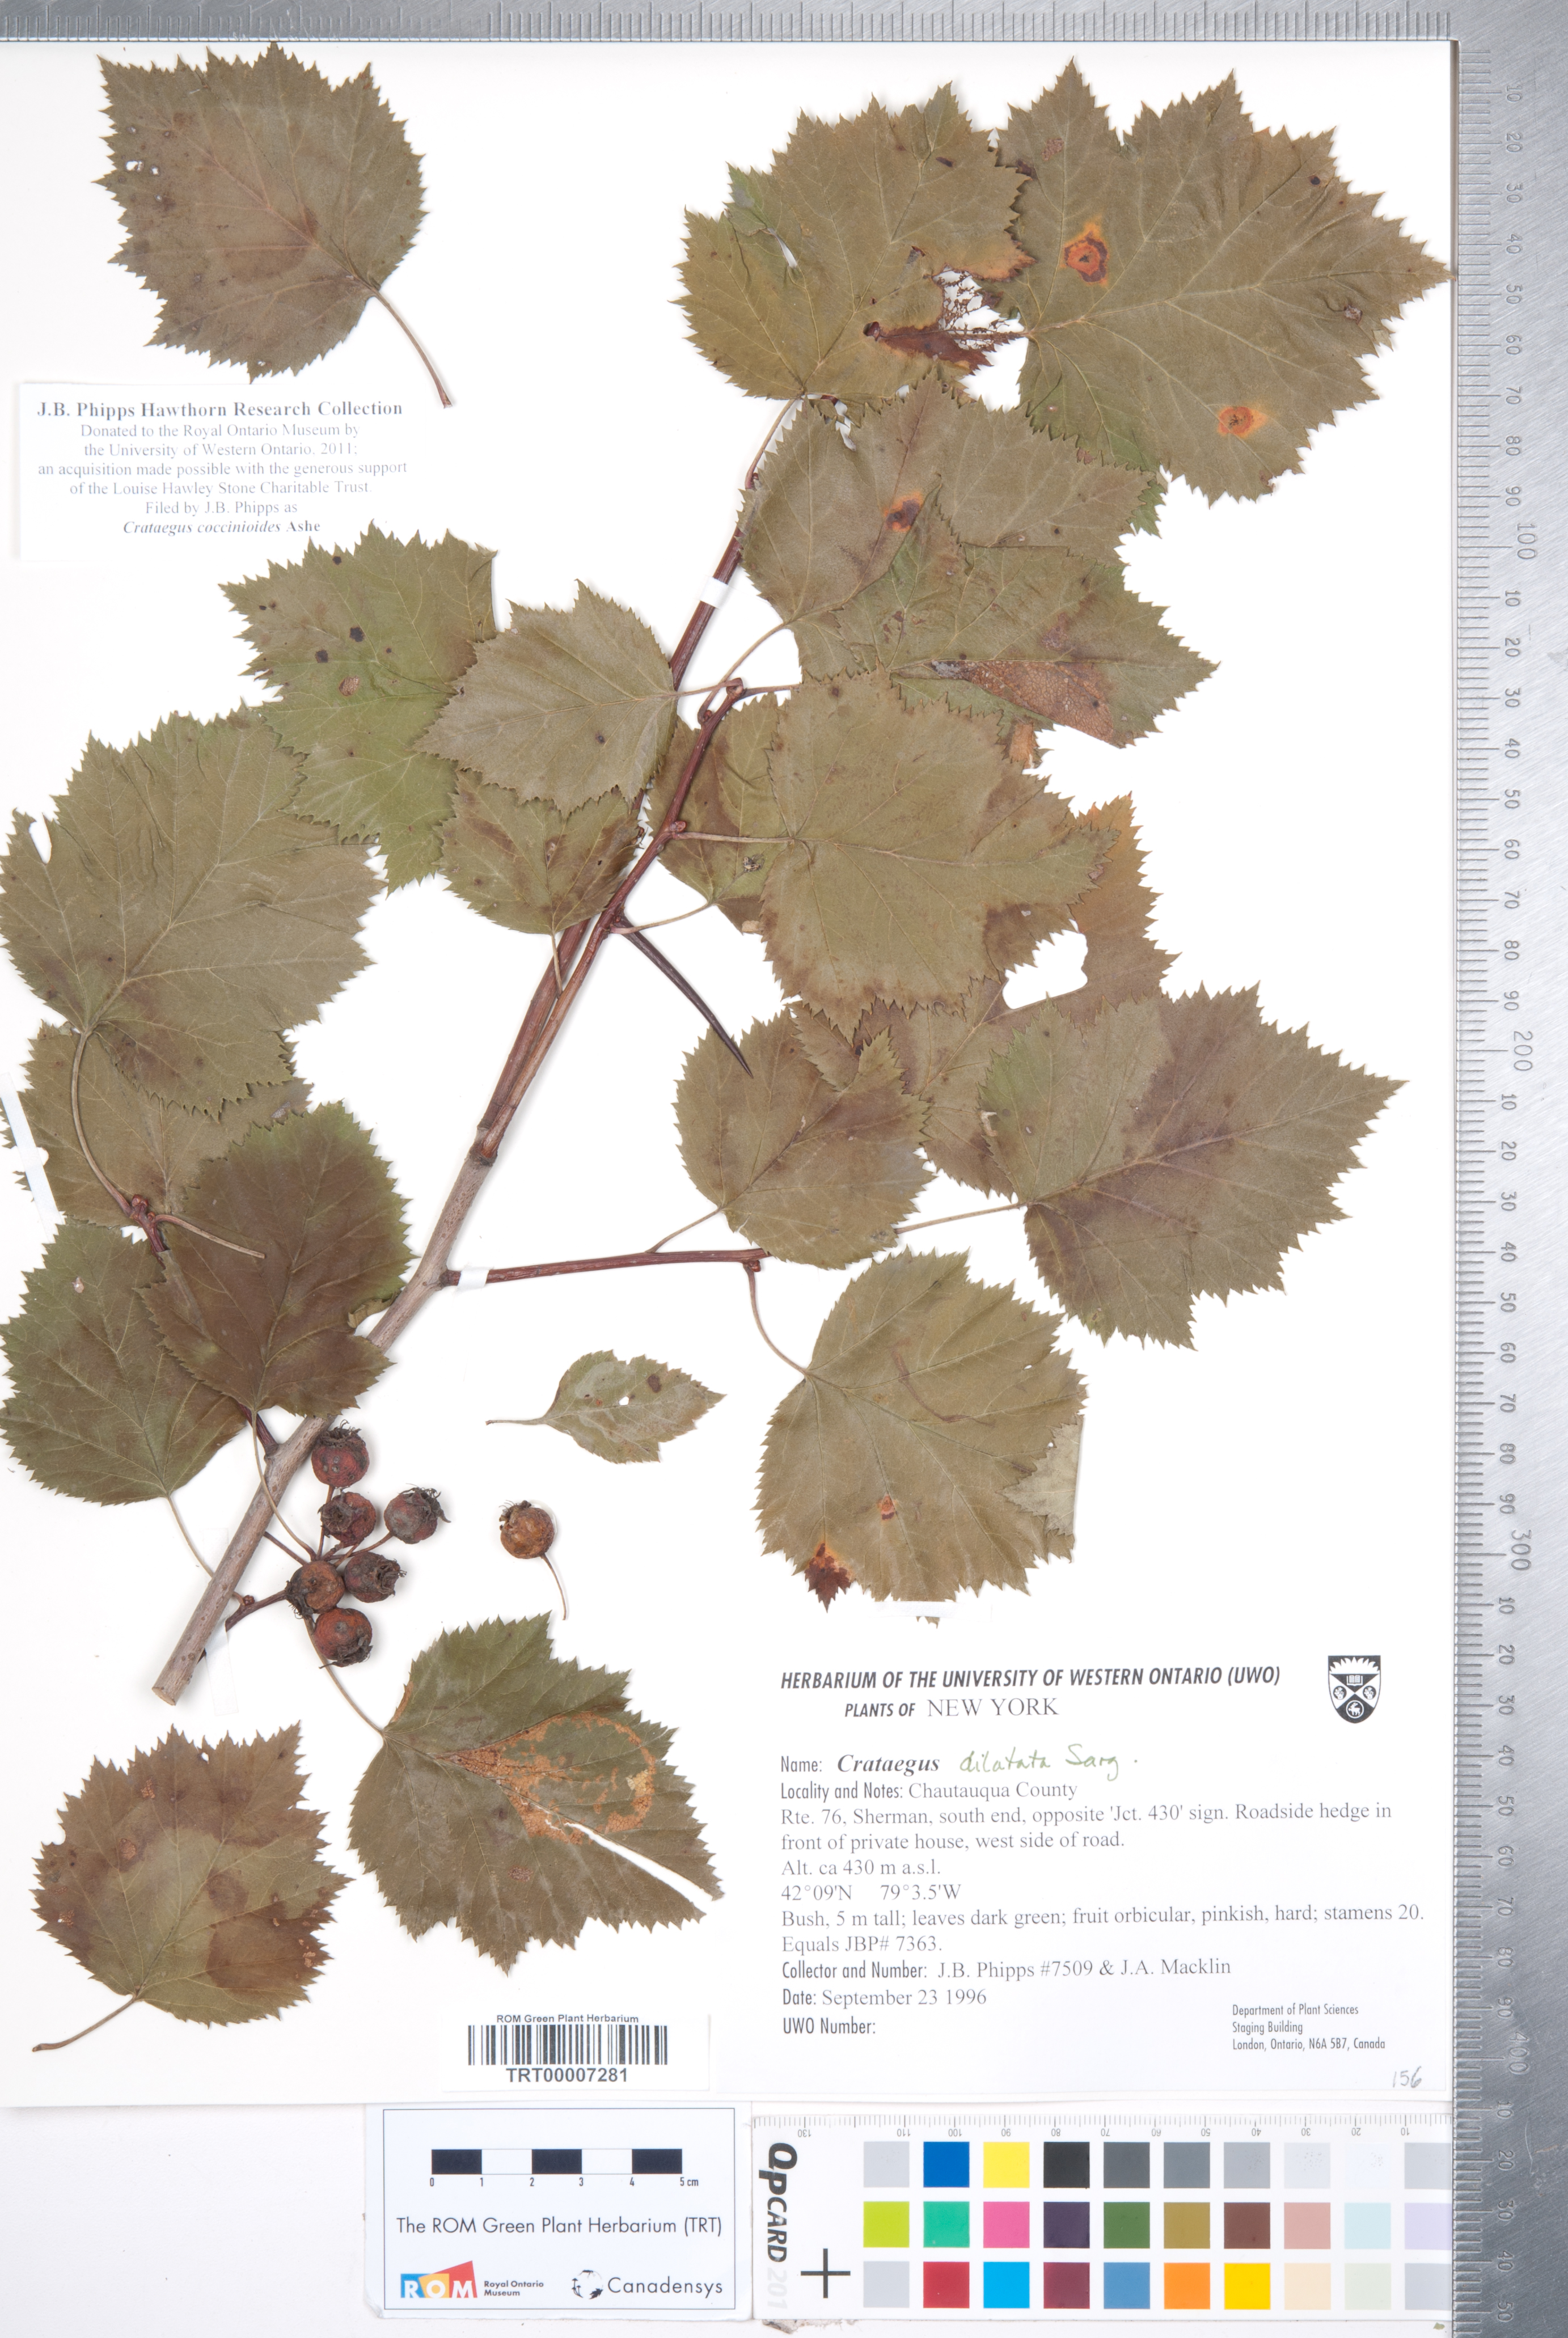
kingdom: Plantae
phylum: Tracheophyta
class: Magnoliopsida
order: Rosales
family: Rosaceae
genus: Crataegus
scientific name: Crataegus coccinioides
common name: Large-flowered cockspurthorn
